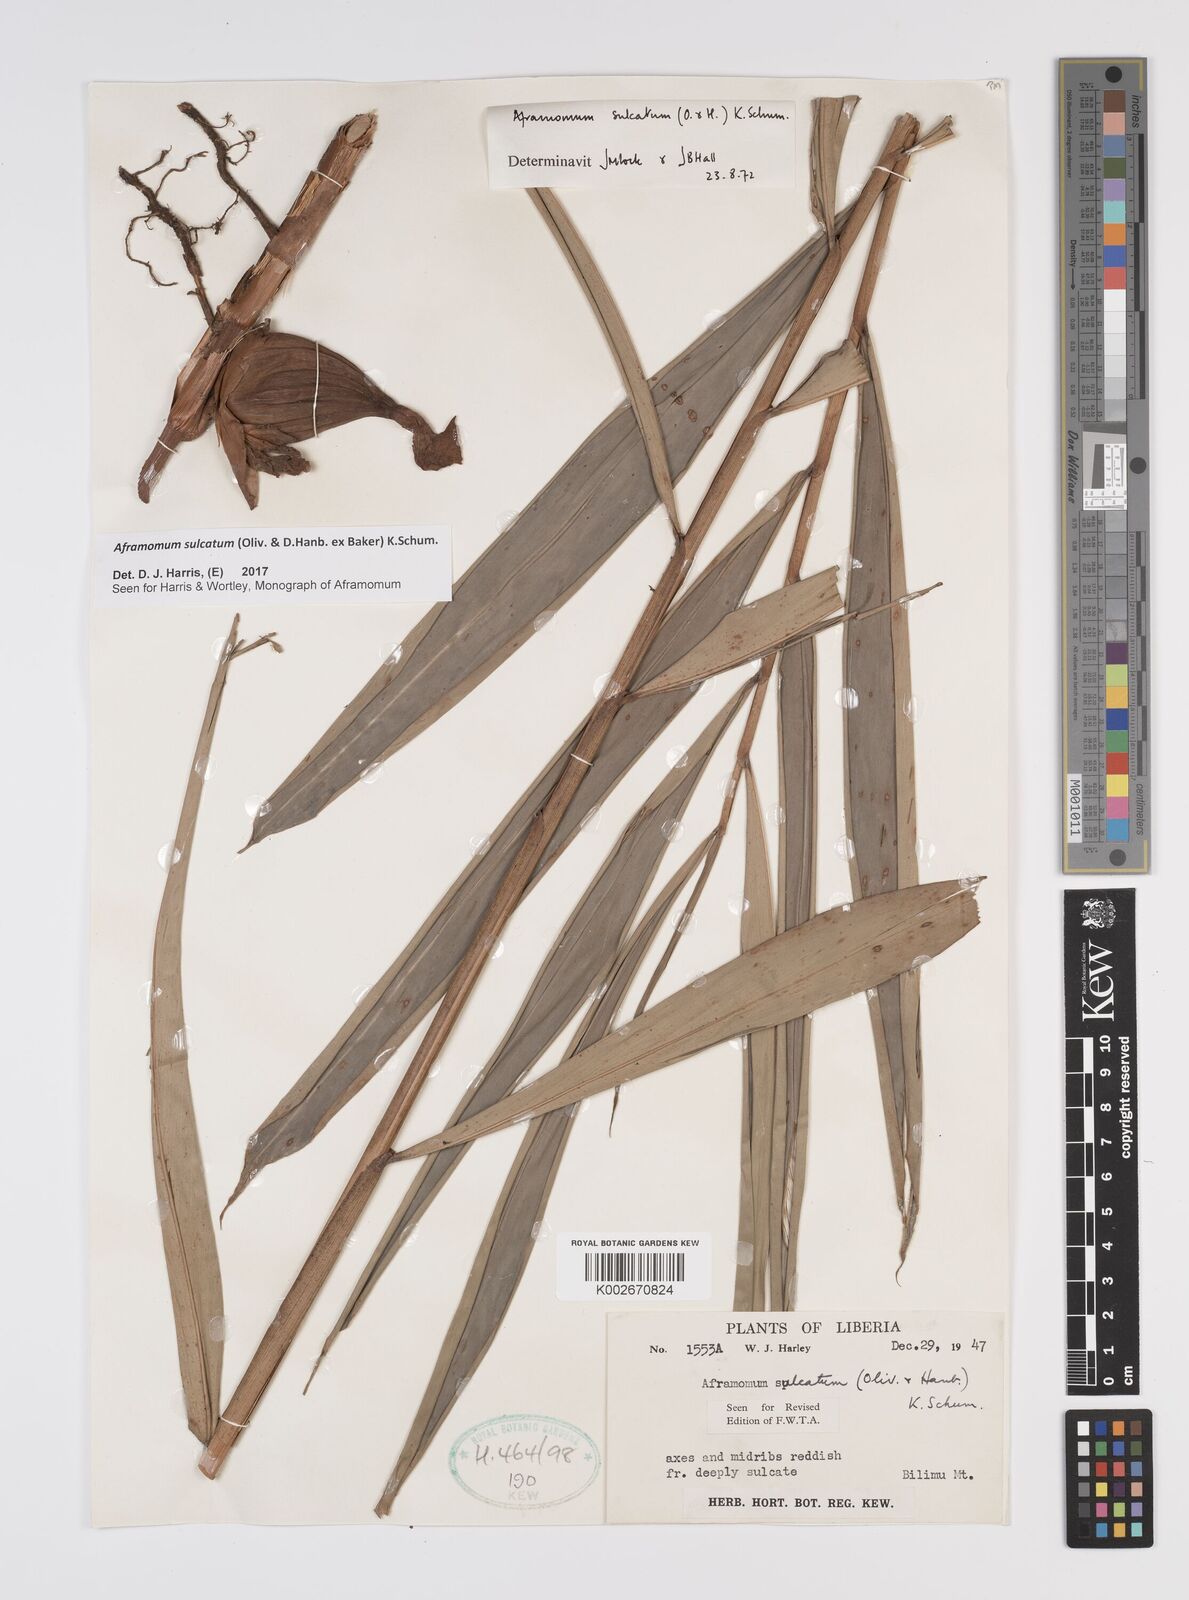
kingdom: Plantae
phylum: Tracheophyta
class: Liliopsida
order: Zingiberales
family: Zingiberaceae
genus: Aframomum
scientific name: Aframomum sulcatum
